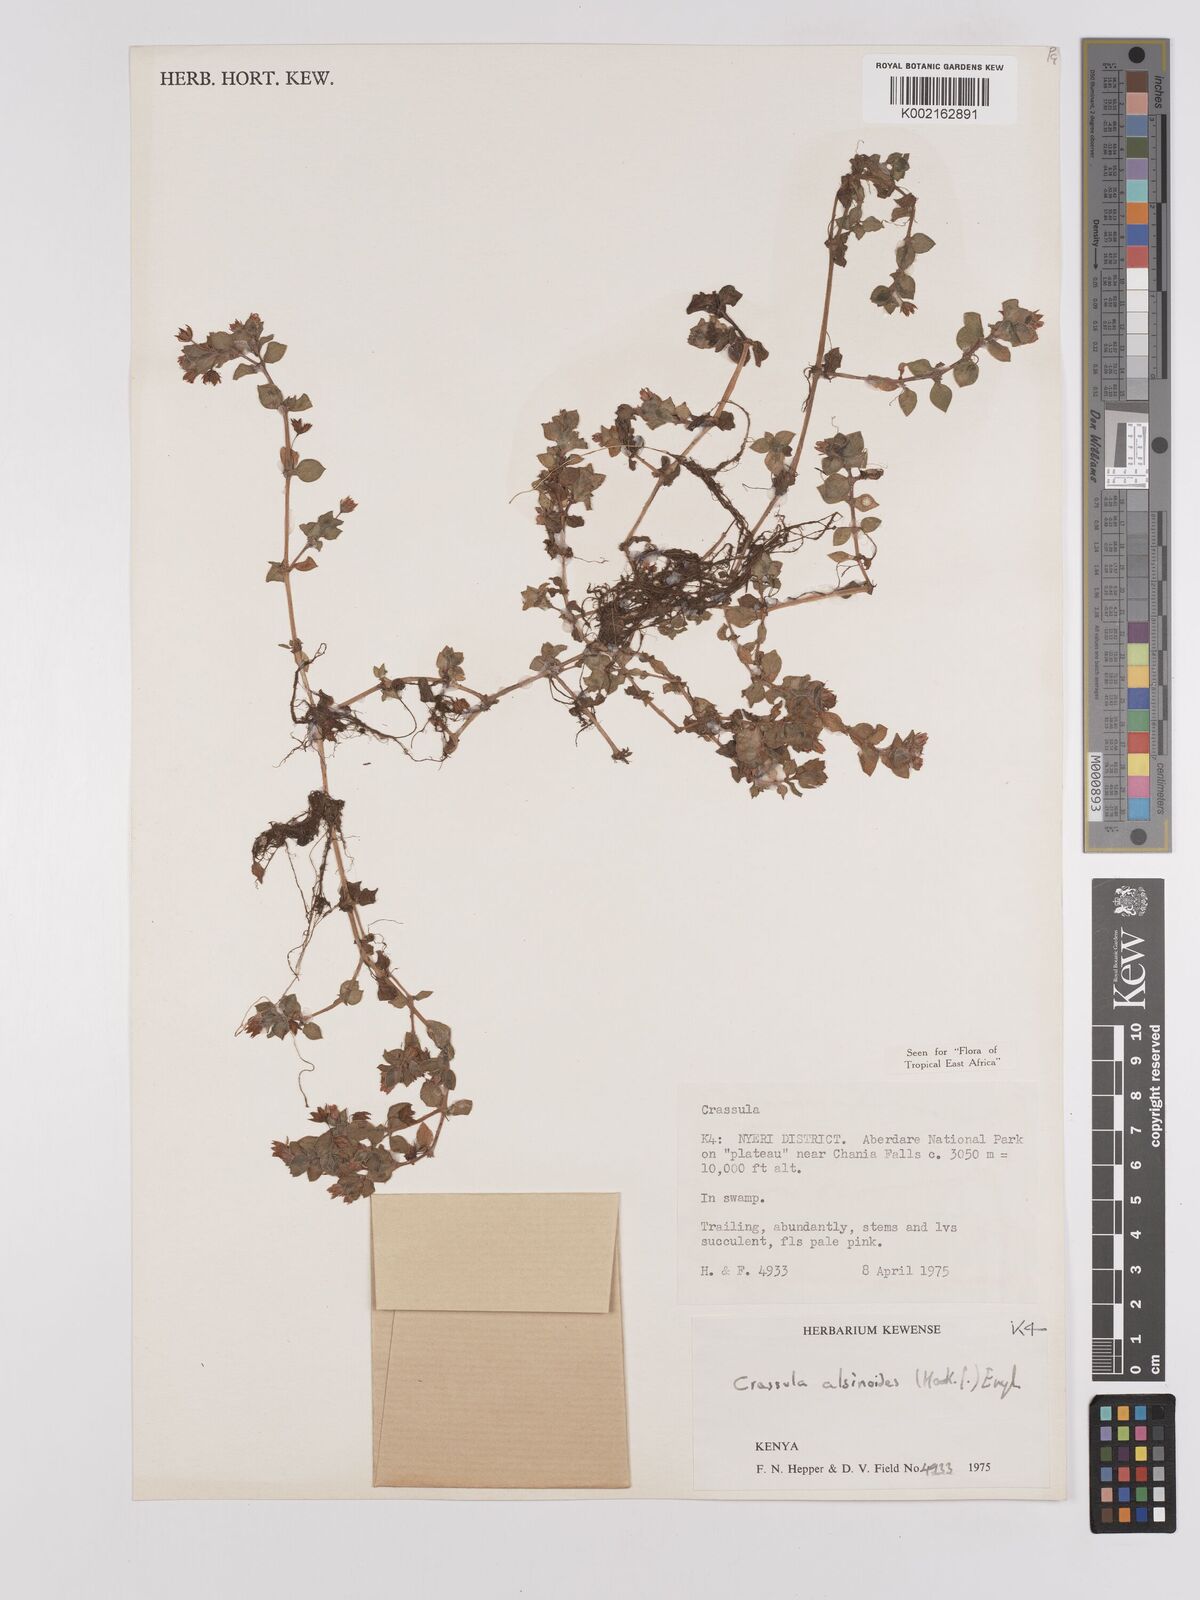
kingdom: Plantae
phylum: Tracheophyta
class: Magnoliopsida
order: Saxifragales
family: Crassulaceae
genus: Crassula
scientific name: Crassula alsinoides
